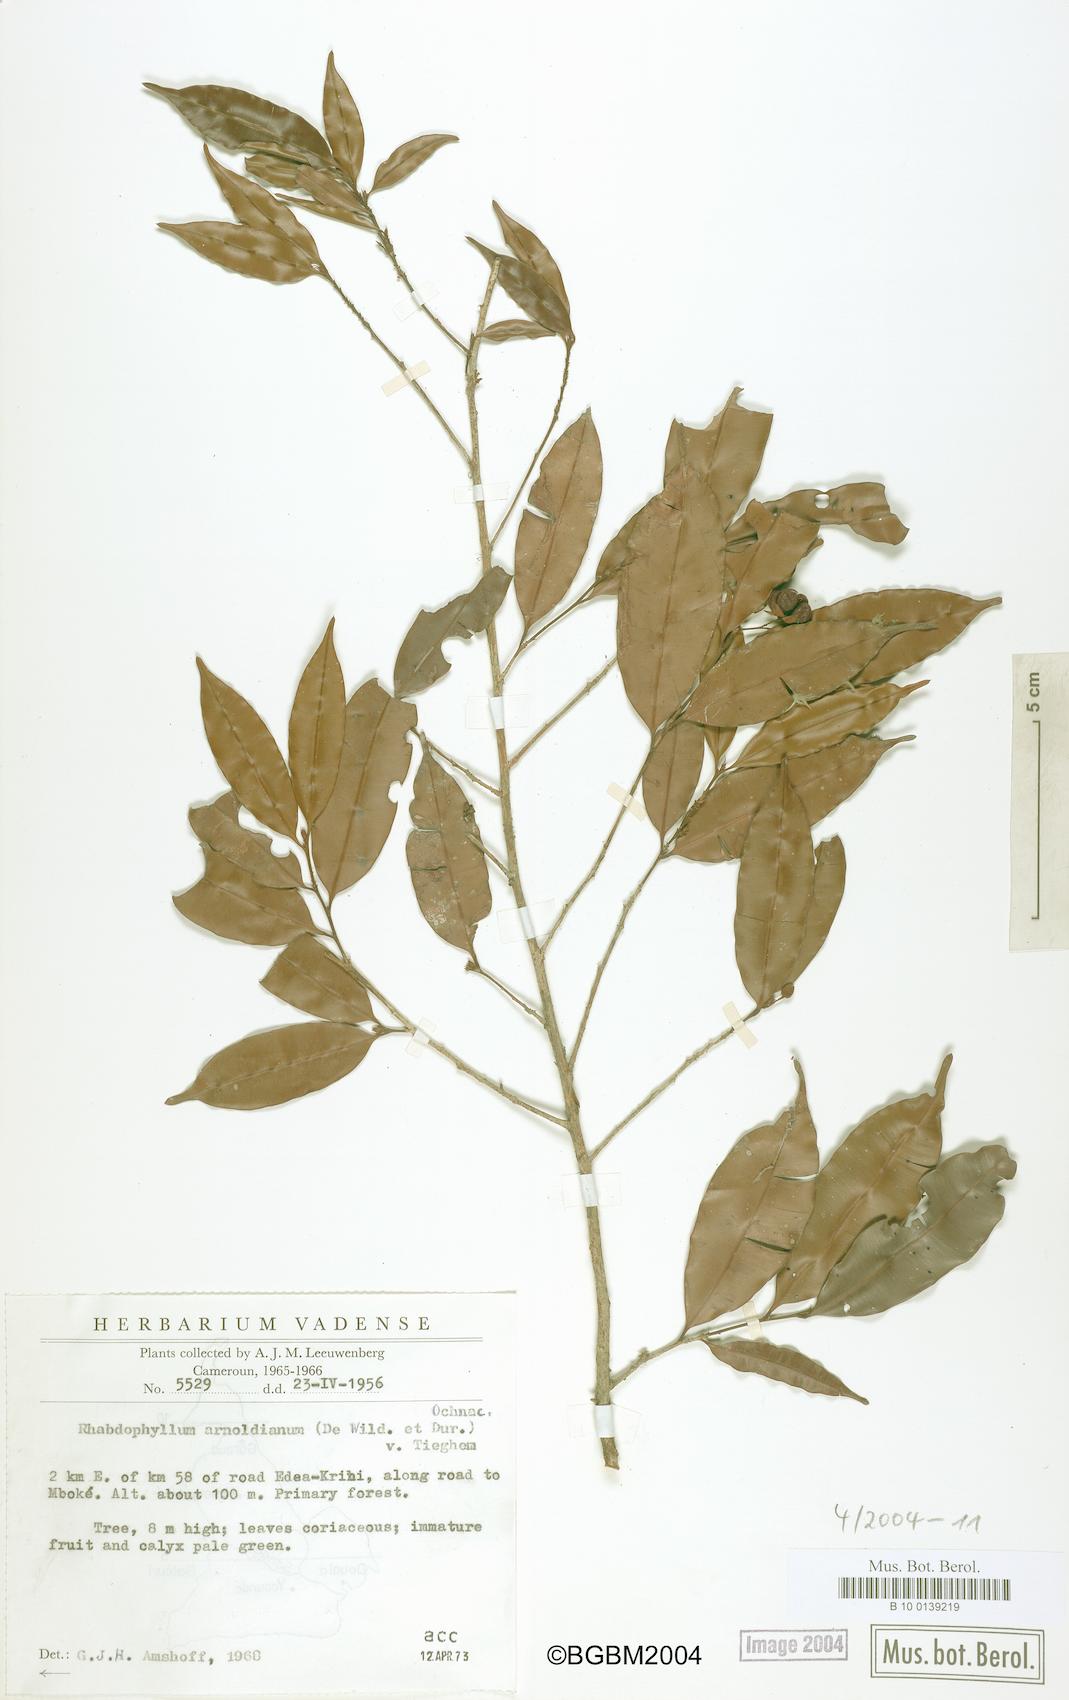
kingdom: Plantae
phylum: Tracheophyta
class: Magnoliopsida
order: Malpighiales
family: Ochnaceae
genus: Rhabdophyllum
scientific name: Rhabdophyllum arnoldianum
